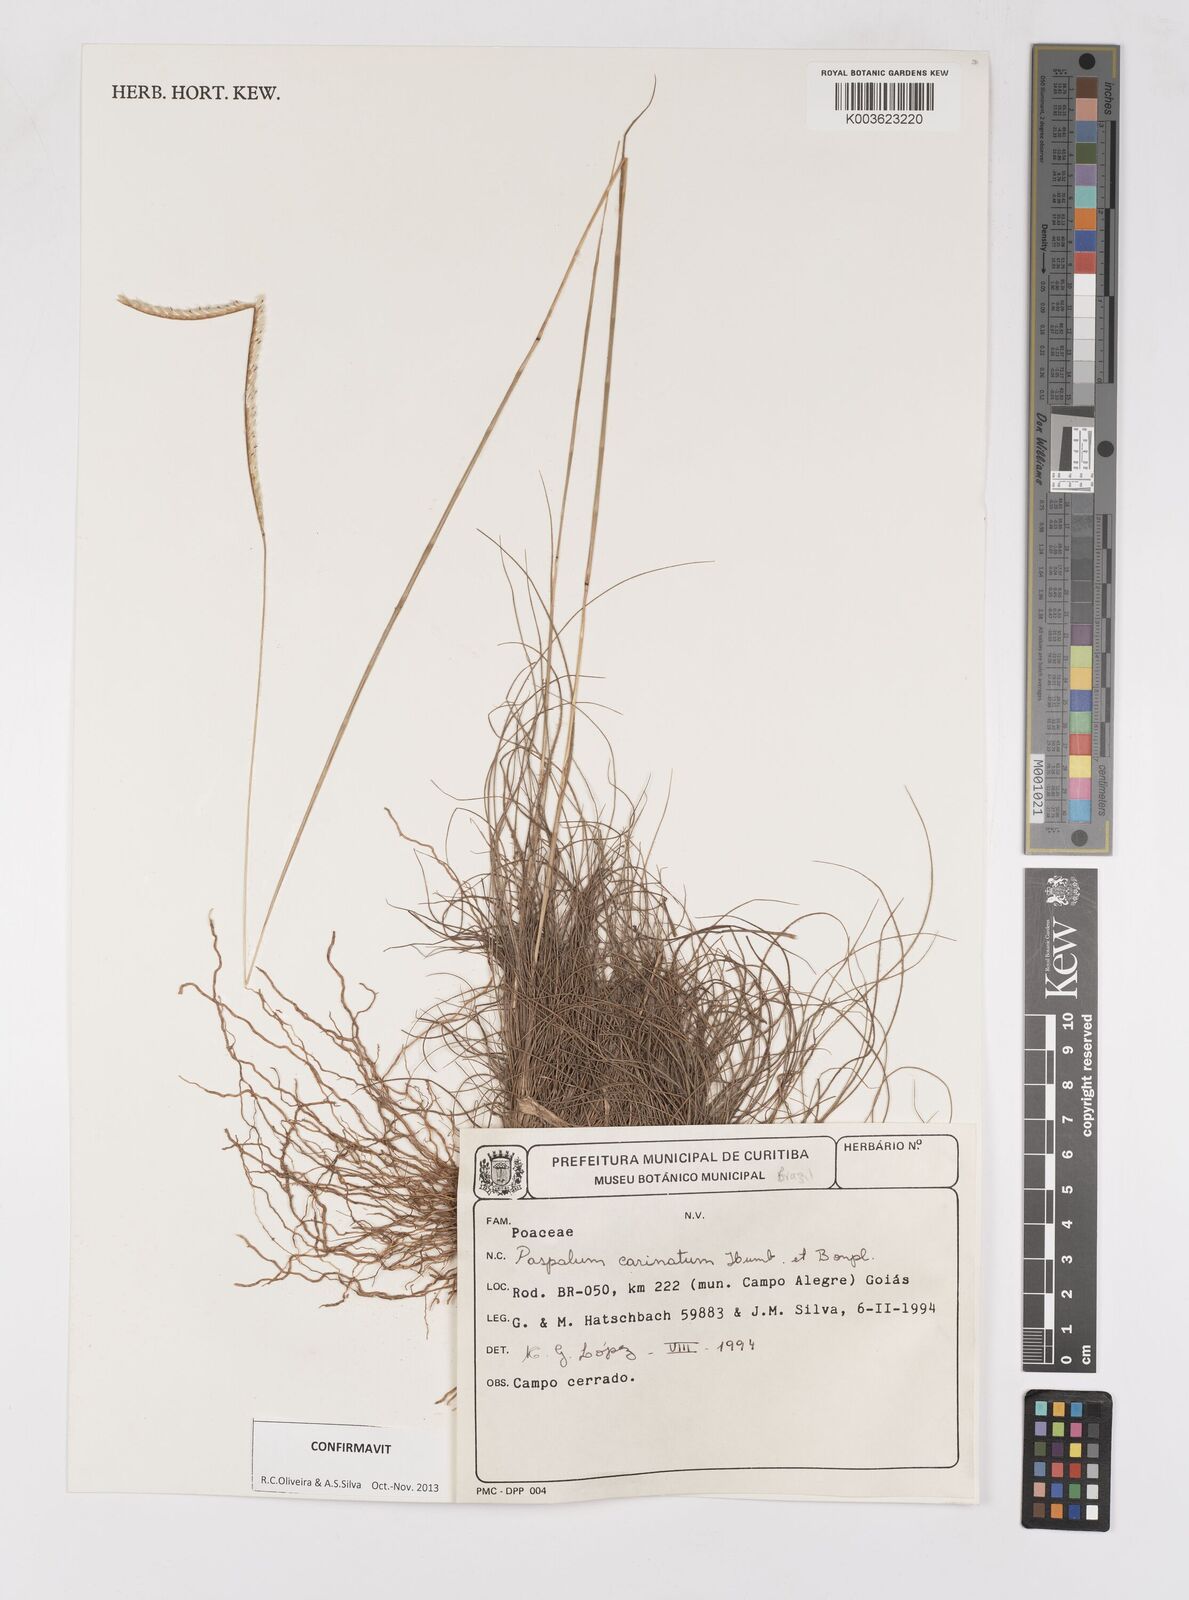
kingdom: Plantae
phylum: Tracheophyta
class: Liliopsida
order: Poales
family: Poaceae
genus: Paspalum
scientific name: Paspalum carinatum
